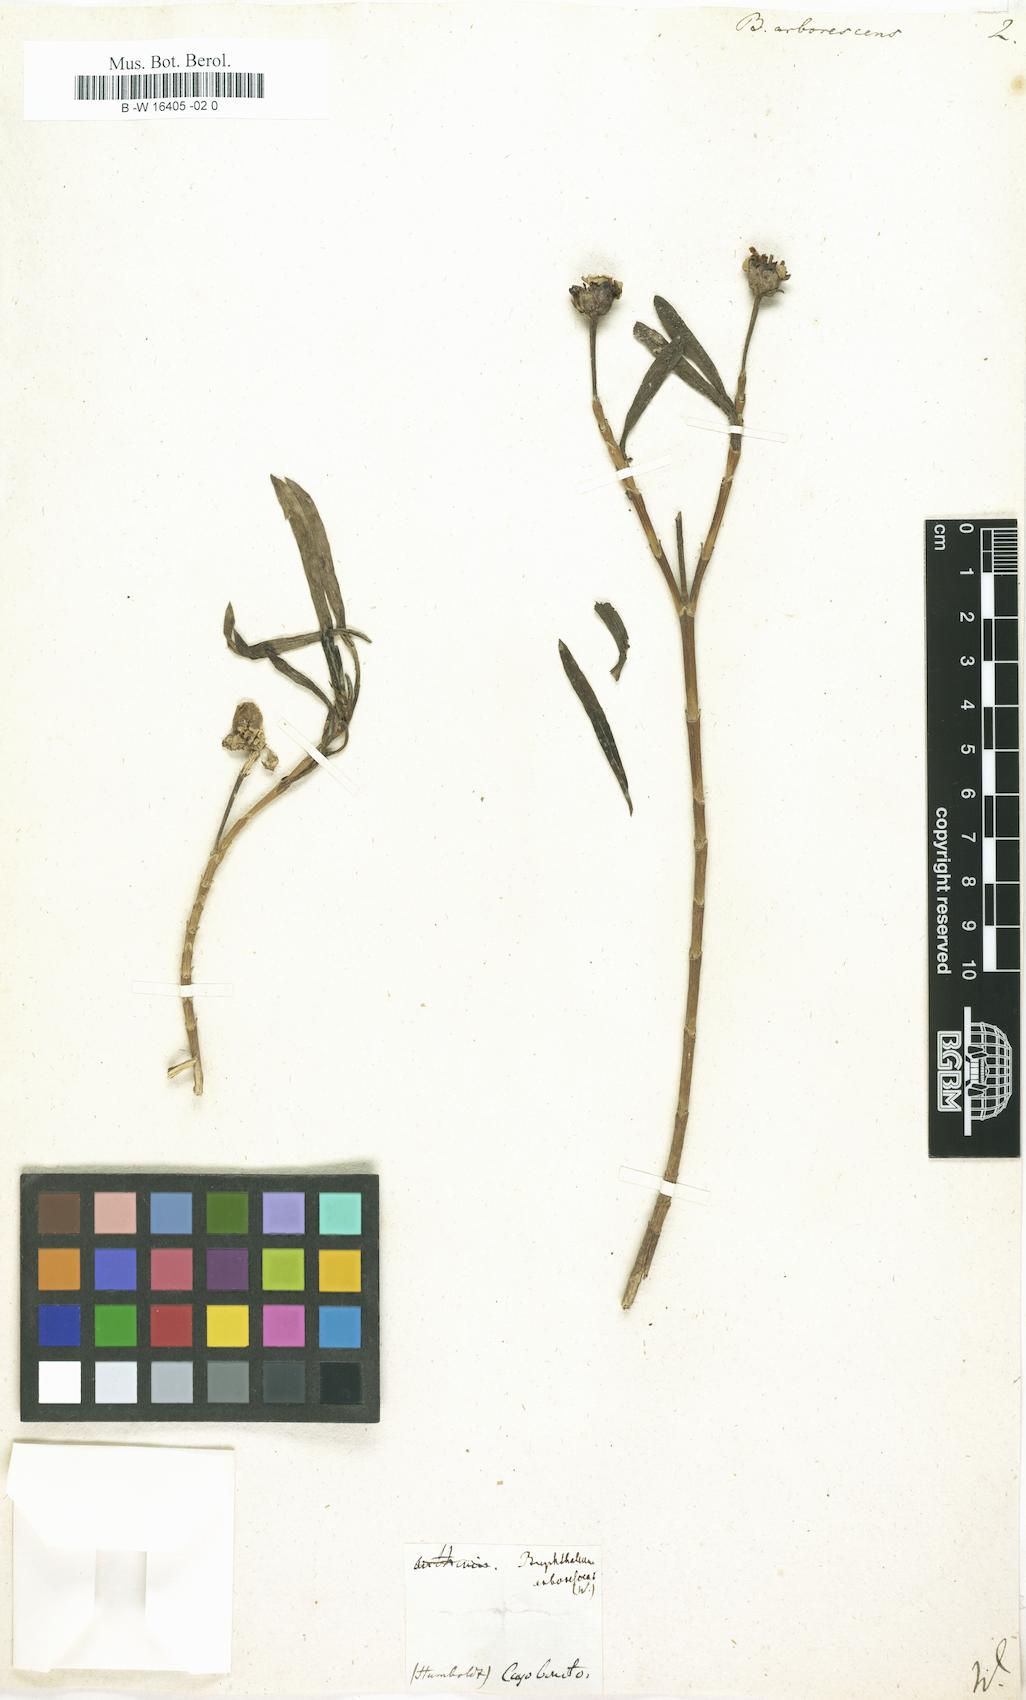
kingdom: Plantae
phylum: Tracheophyta
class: Magnoliopsida
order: Asterales
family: Asteraceae
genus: Borrichia
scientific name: Borrichia arborescens
